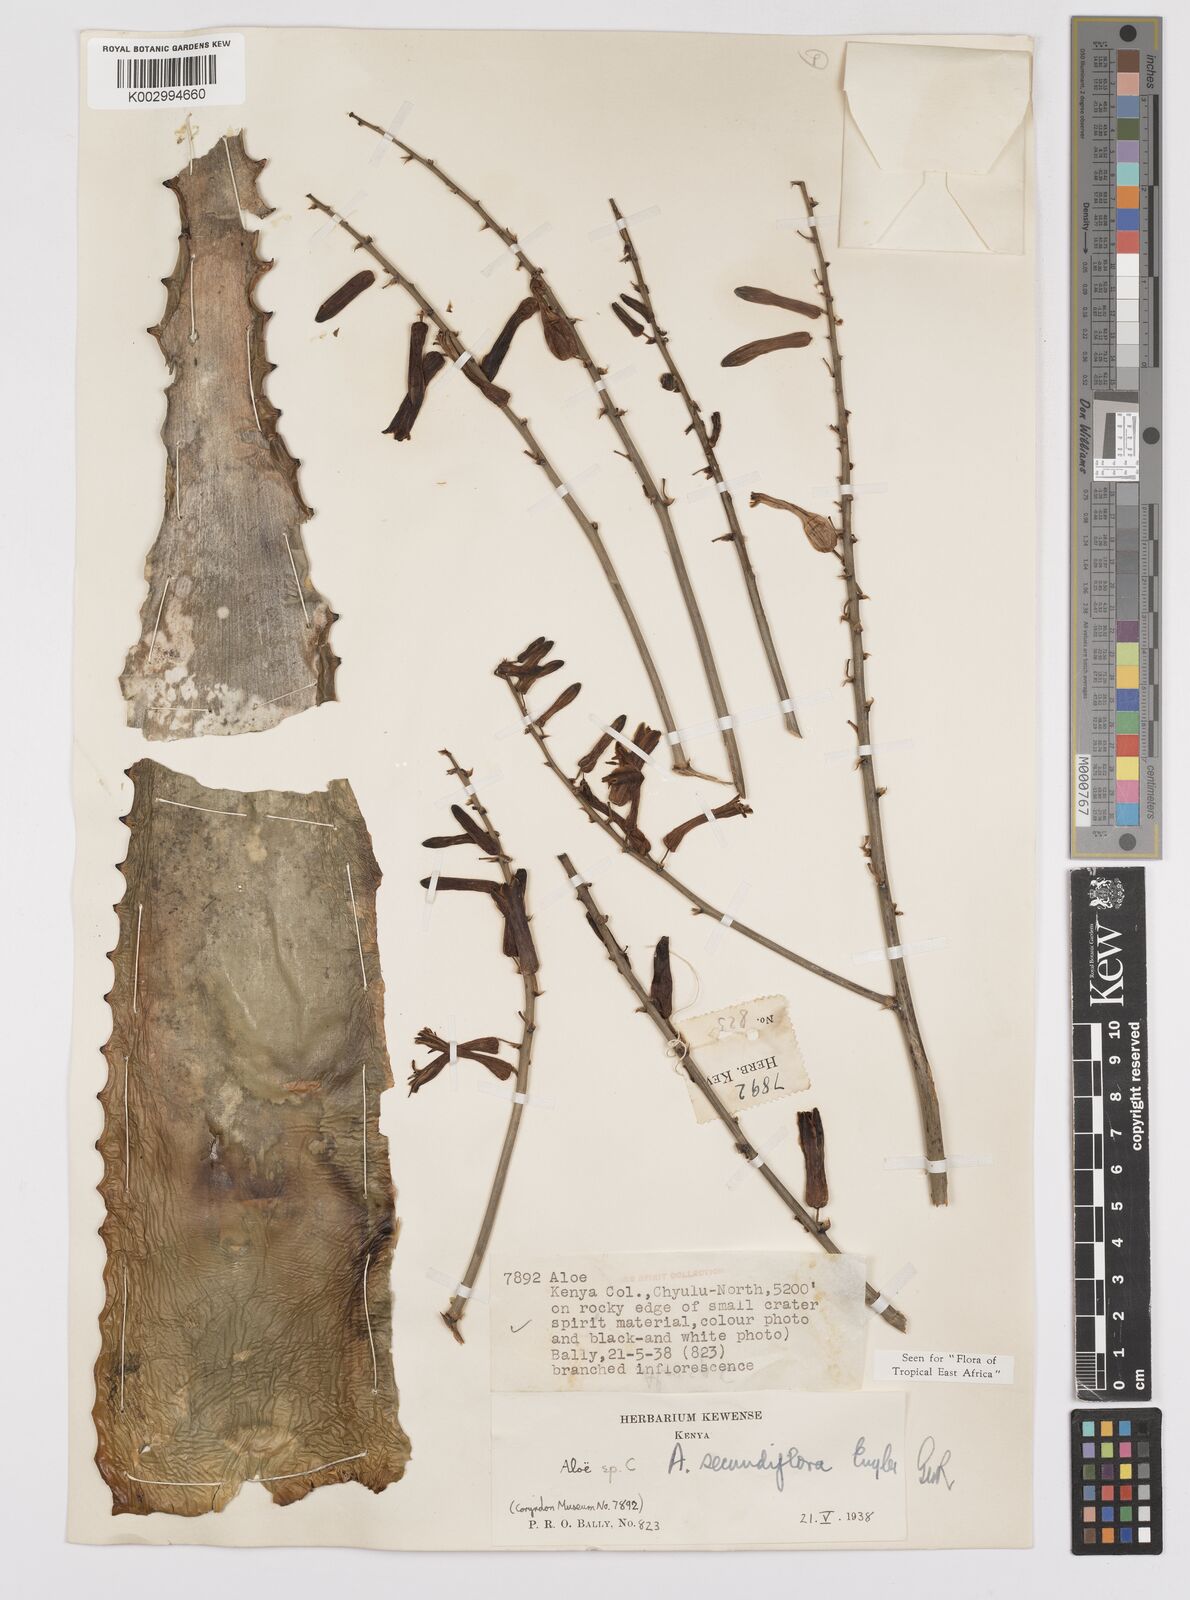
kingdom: Plantae
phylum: Tracheophyta
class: Liliopsida
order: Asparagales
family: Asphodelaceae
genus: Aloe
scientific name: Aloe secundiflora
